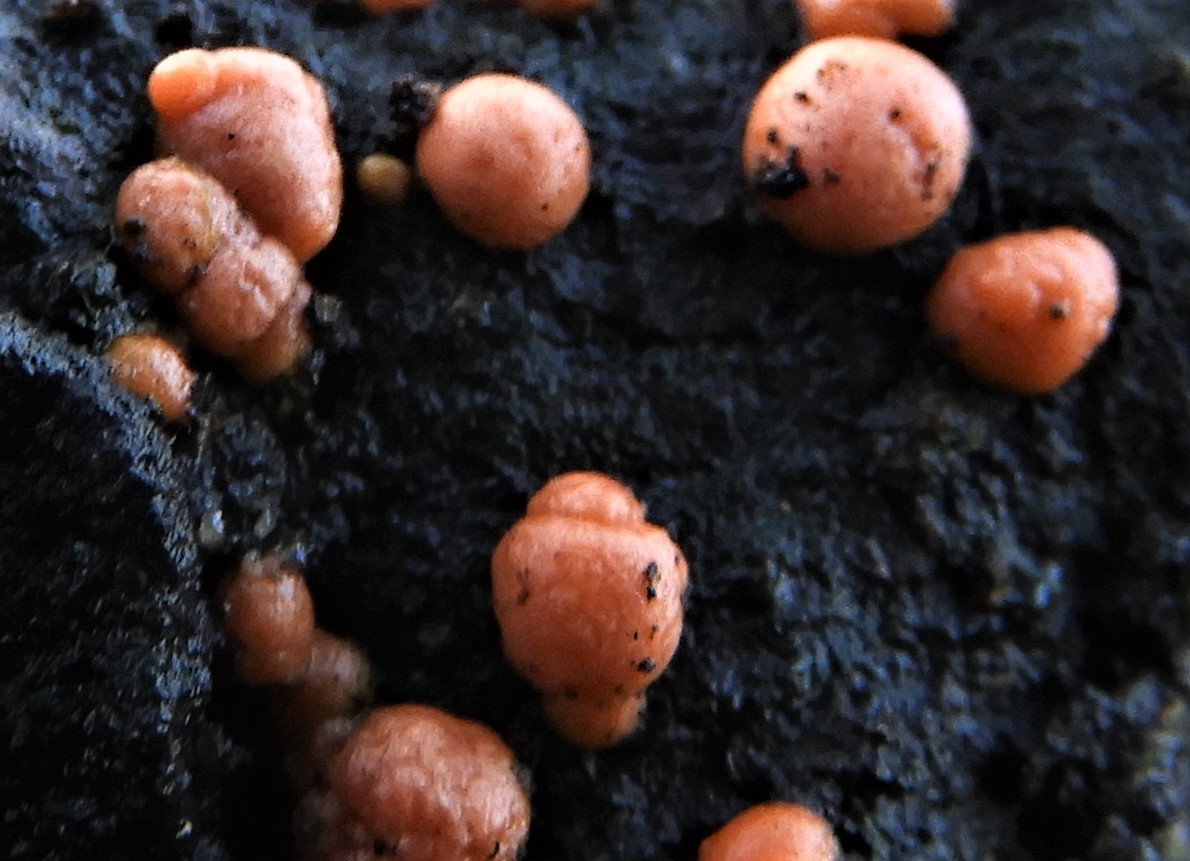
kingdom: Fungi
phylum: Ascomycota
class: Sordariomycetes
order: Hypocreales
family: Nectriaceae
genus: Nectria
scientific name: Nectria
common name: cinnobersvamp
